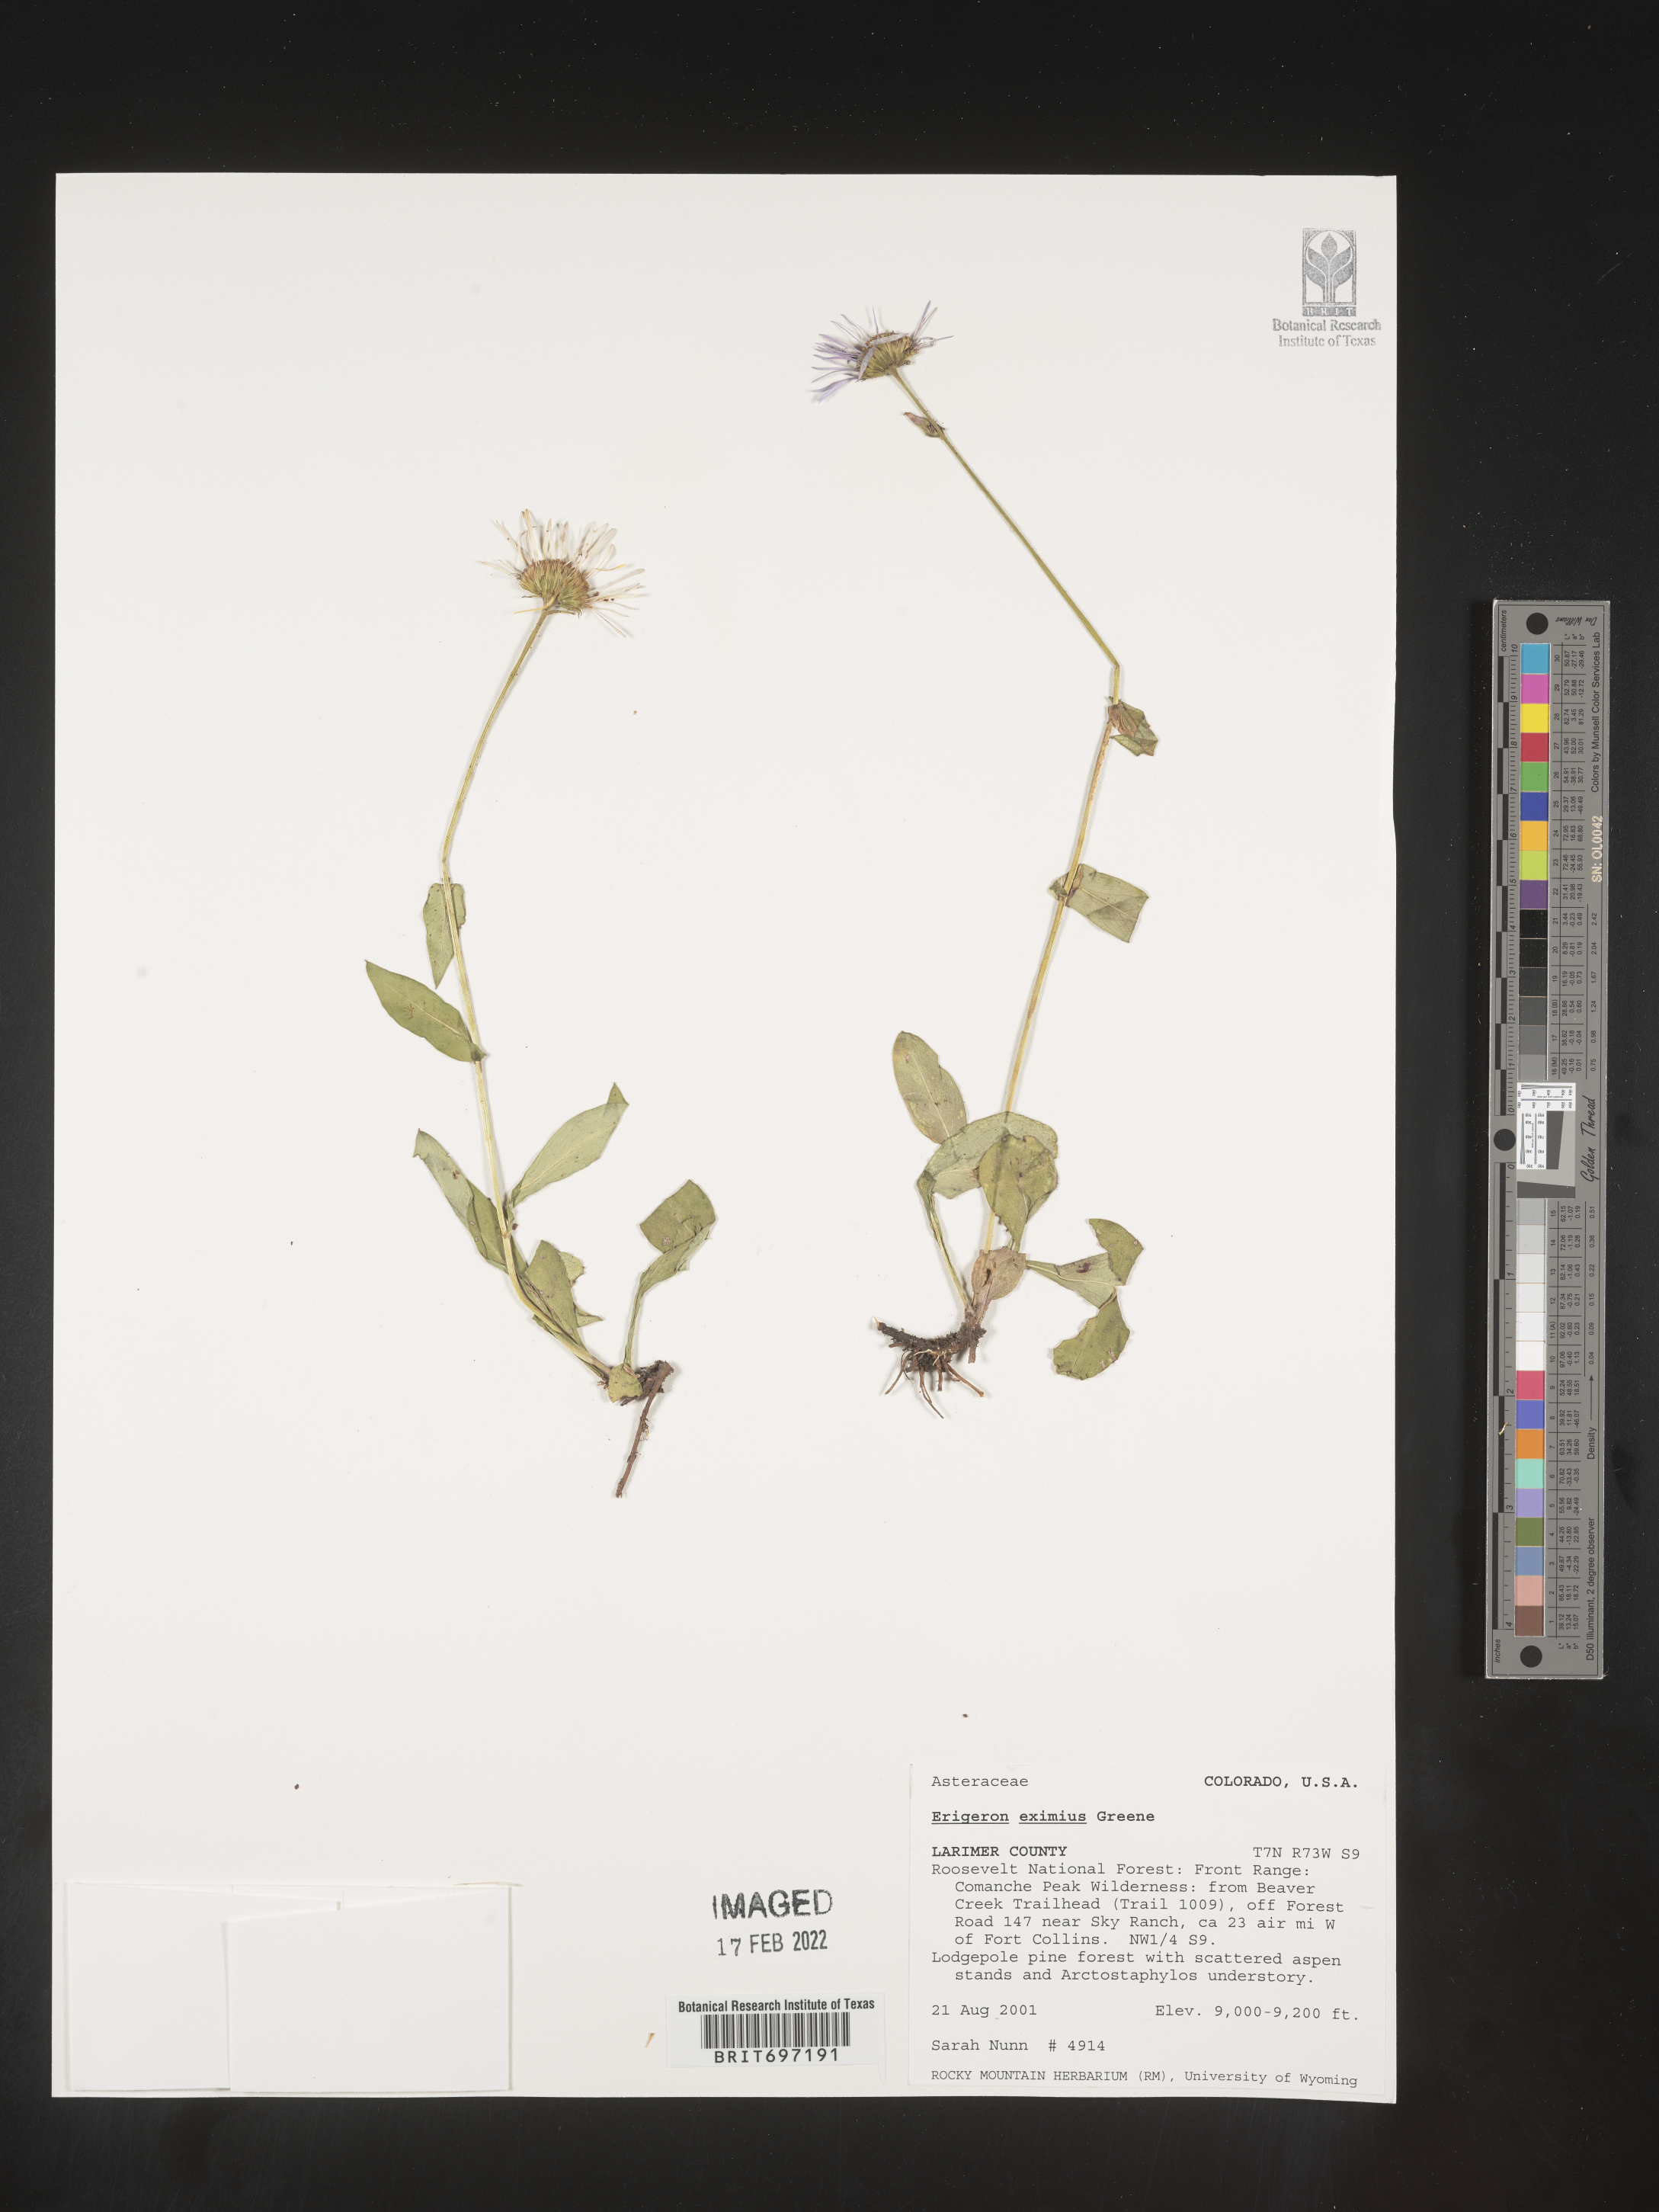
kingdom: Plantae
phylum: Tracheophyta
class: Magnoliopsida
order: Asterales
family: Asteraceae
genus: Erigeron
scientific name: Erigeron eximius
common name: Spruce-fir fleabane
